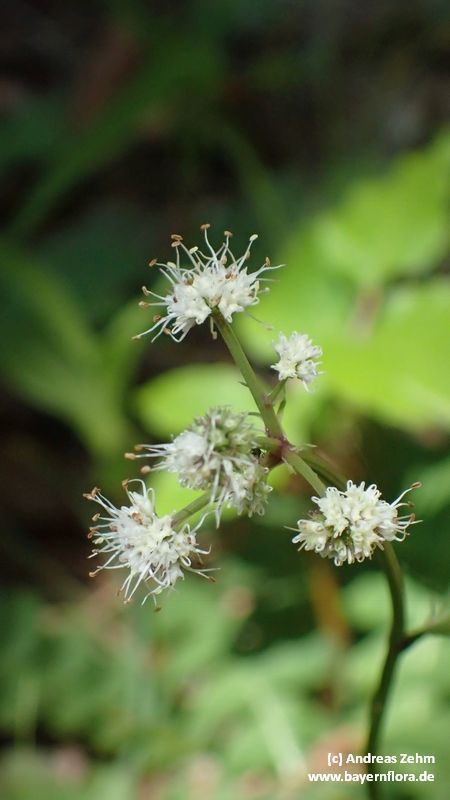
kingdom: Plantae
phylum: Tracheophyta
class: Magnoliopsida
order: Apiales
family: Apiaceae
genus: Sanicula
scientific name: Sanicula europaea
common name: Sanicle
